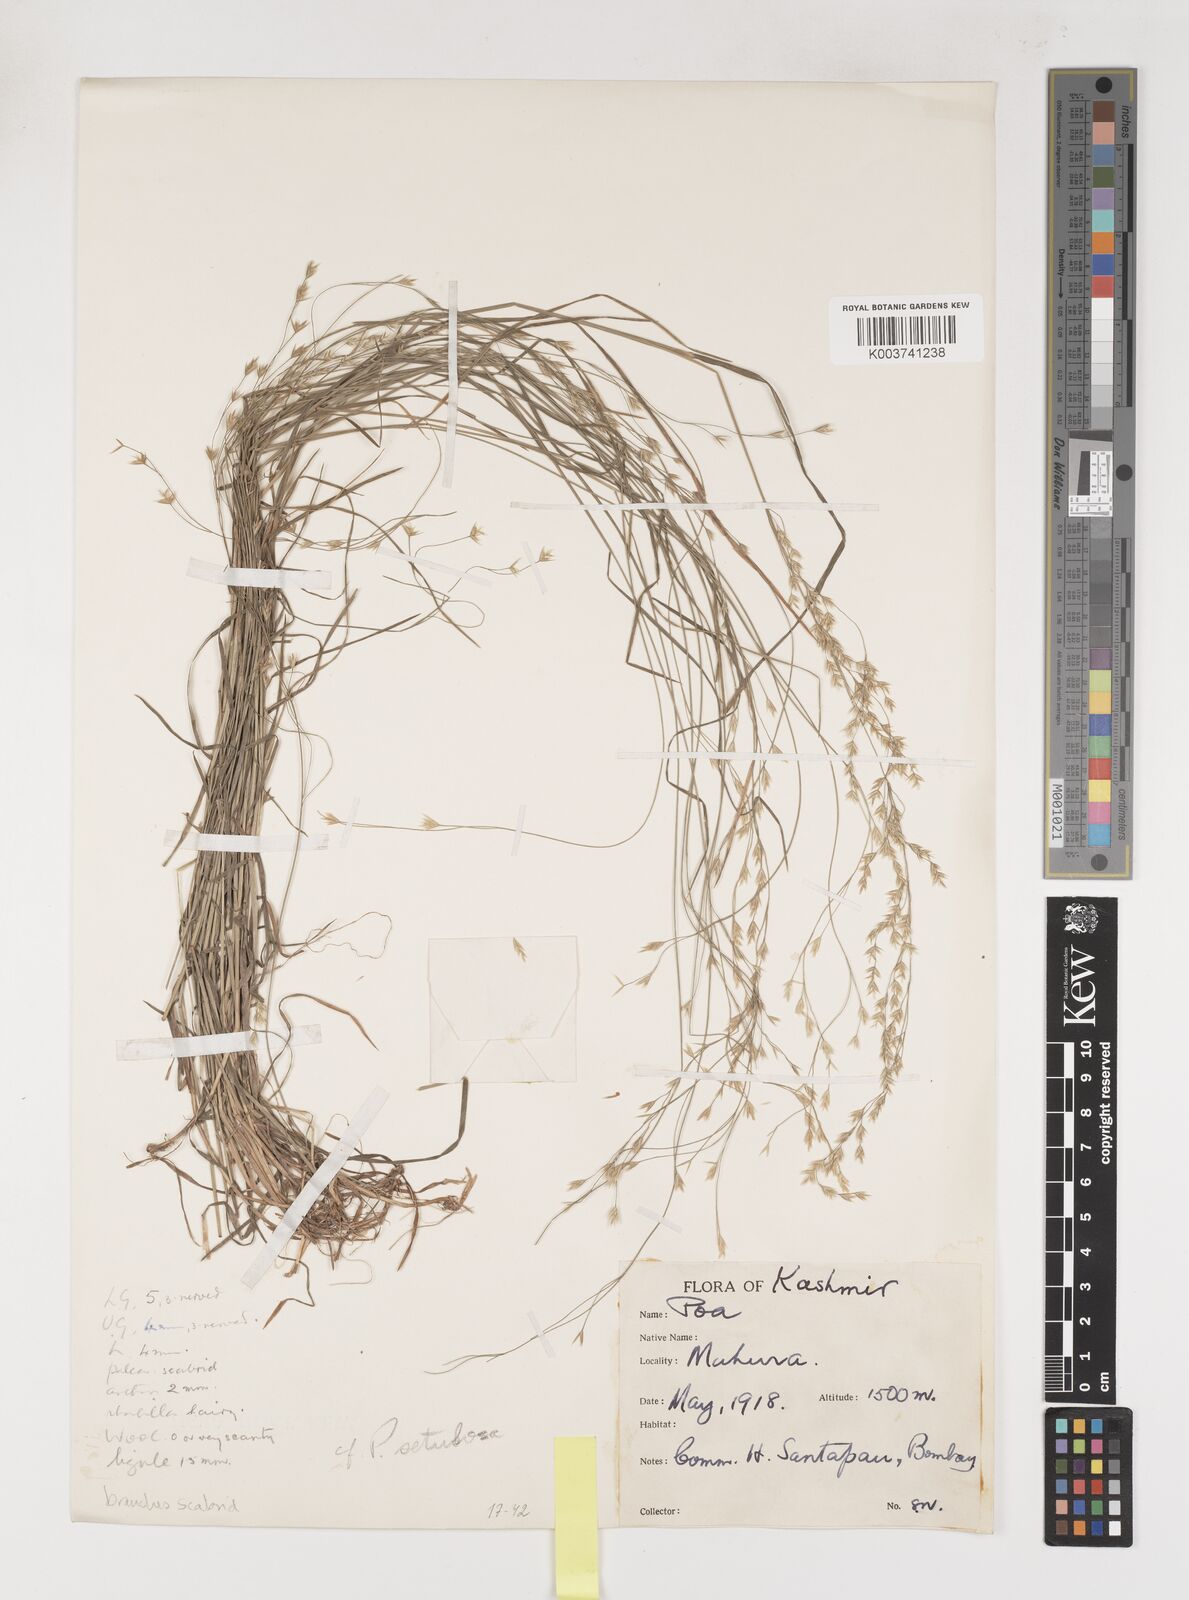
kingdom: Plantae
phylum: Tracheophyta
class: Liliopsida
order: Poales
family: Poaceae
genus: Poa
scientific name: Poa
